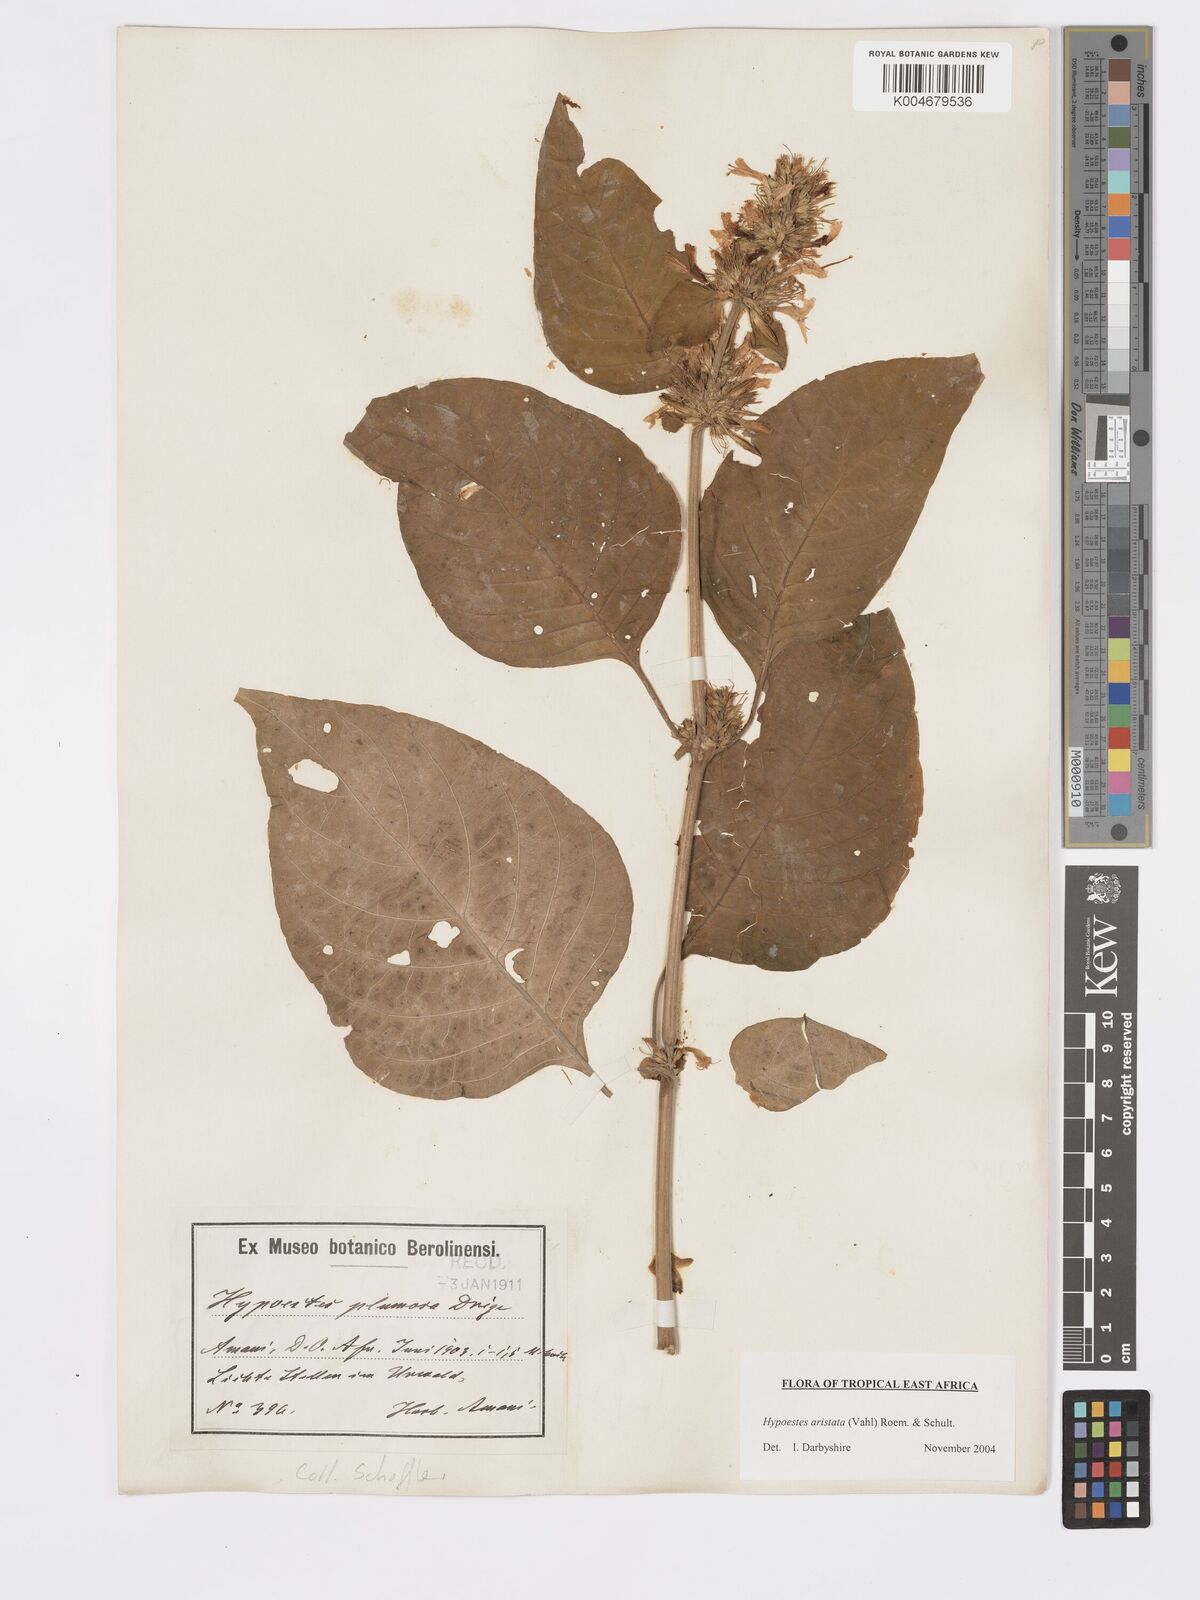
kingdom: Plantae
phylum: Tracheophyta
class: Magnoliopsida
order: Lamiales
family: Acanthaceae
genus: Hypoestes
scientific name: Hypoestes aristata
